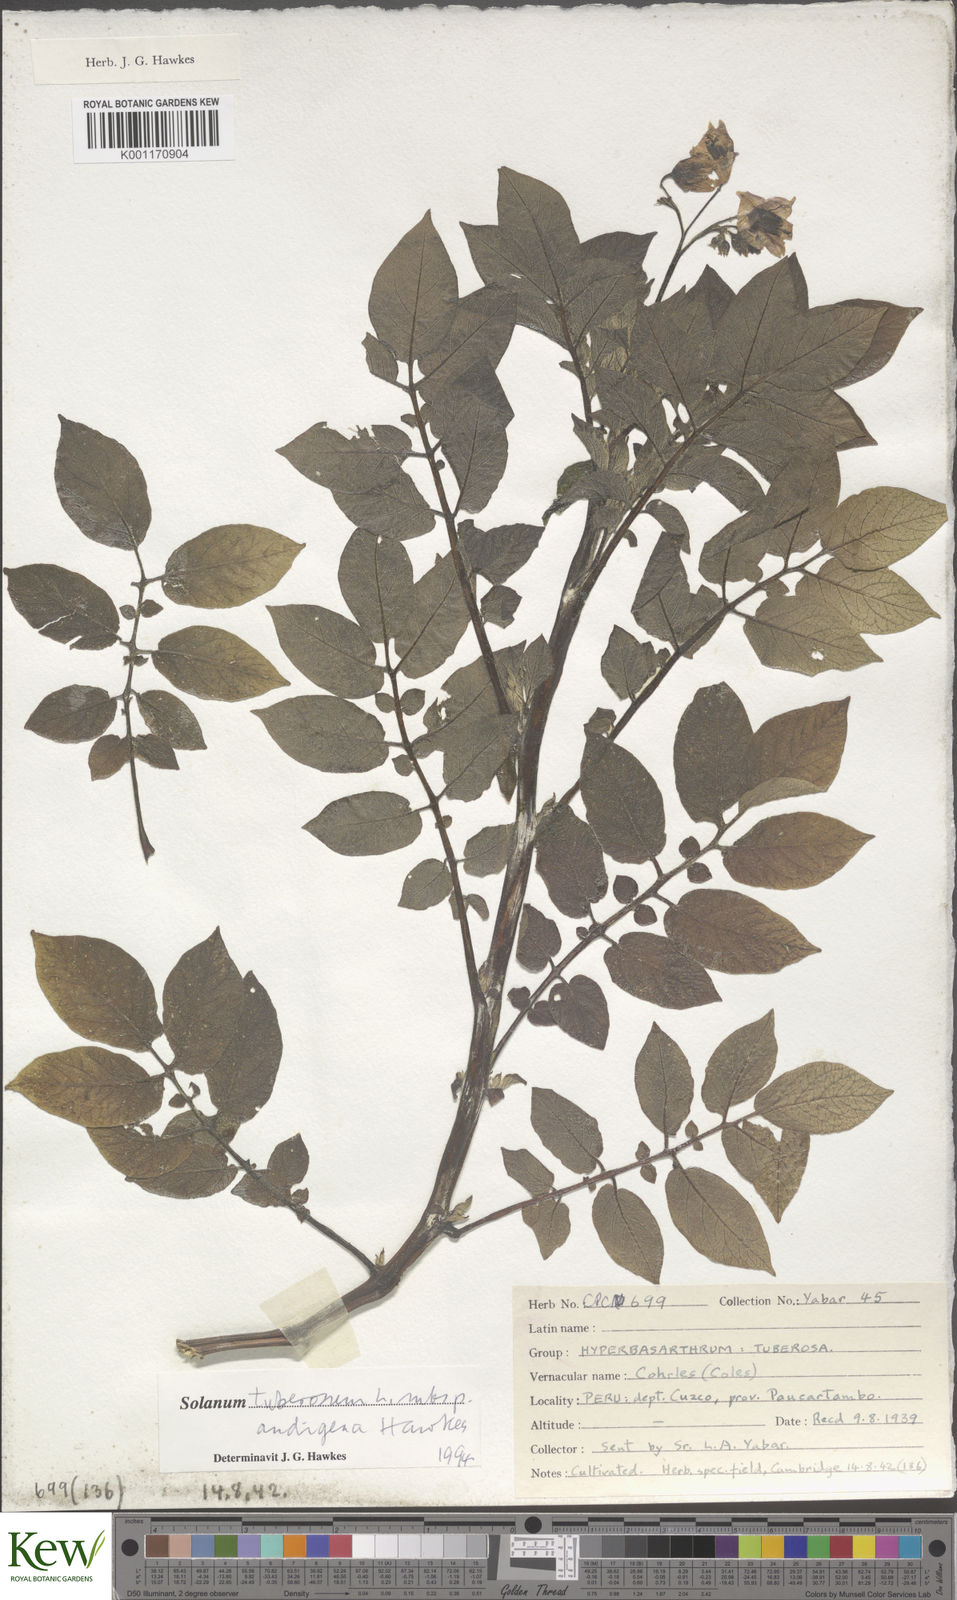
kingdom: Plantae
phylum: Tracheophyta
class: Magnoliopsida
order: Solanales
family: Solanaceae
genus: Solanum
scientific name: Solanum tuberosum
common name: Potato
